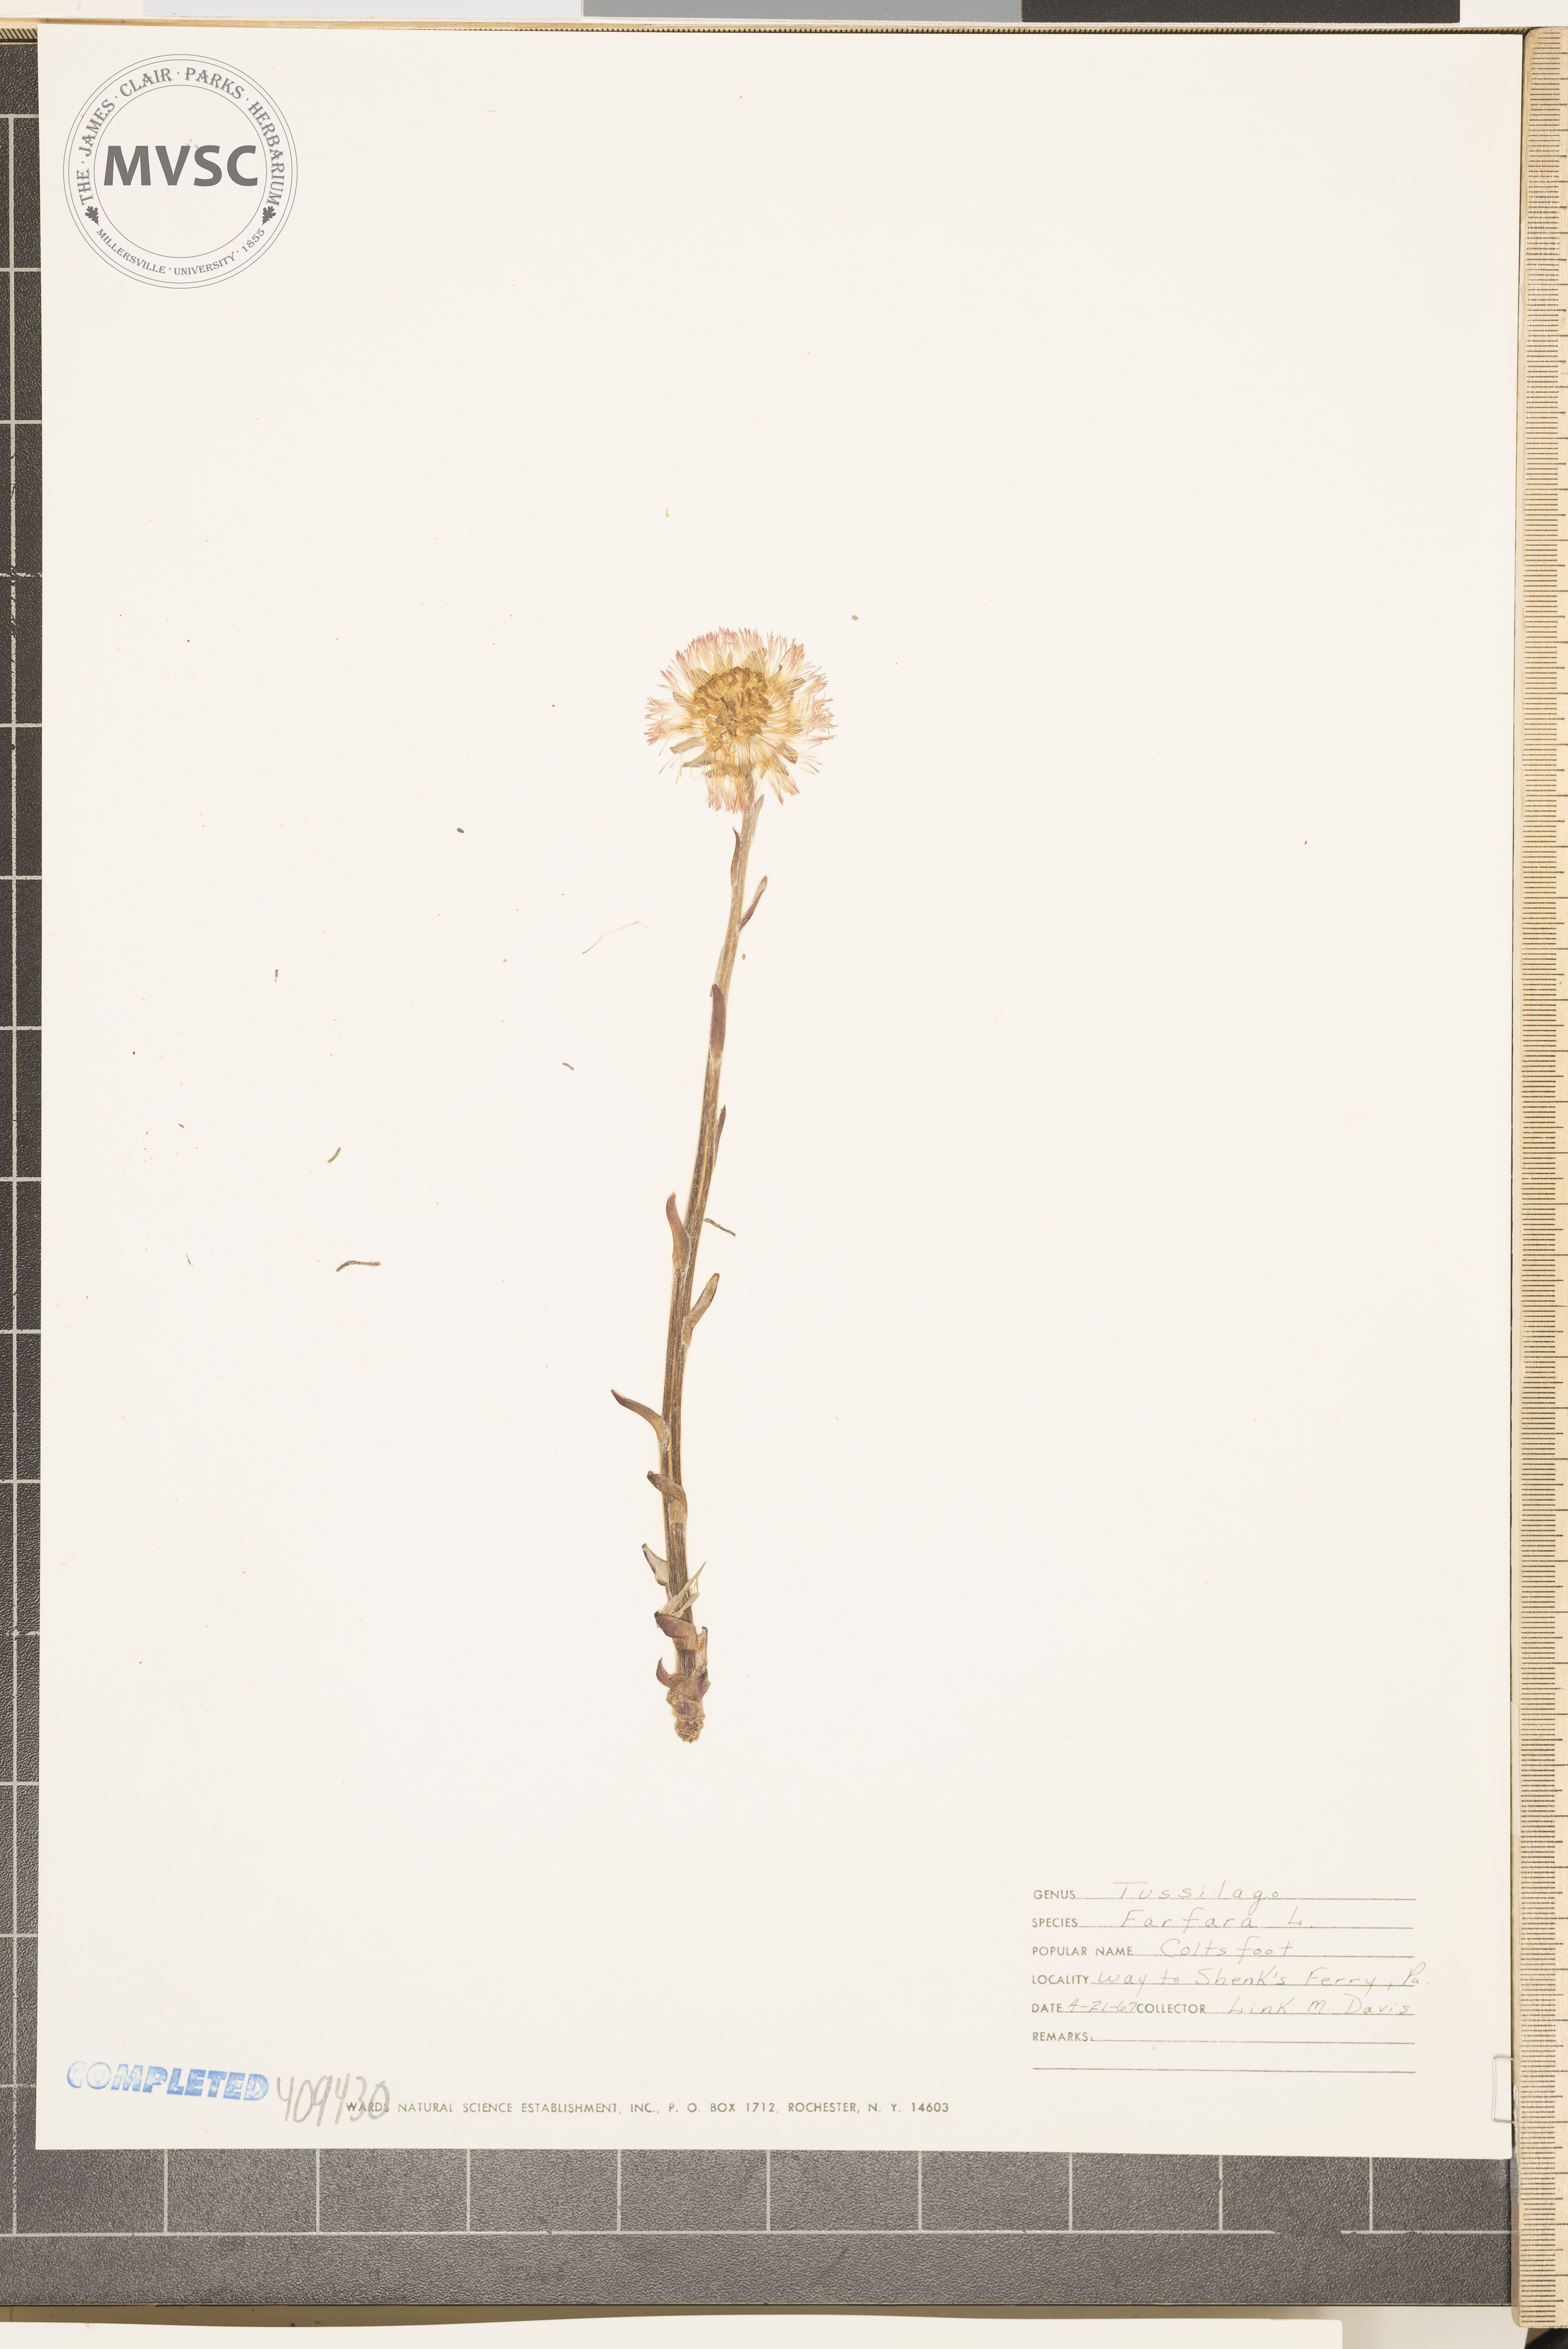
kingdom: Plantae
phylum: Tracheophyta
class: Magnoliopsida
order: Asterales
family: Asteraceae
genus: Tussilago
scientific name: Tussilago farfara
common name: coltsfoot
